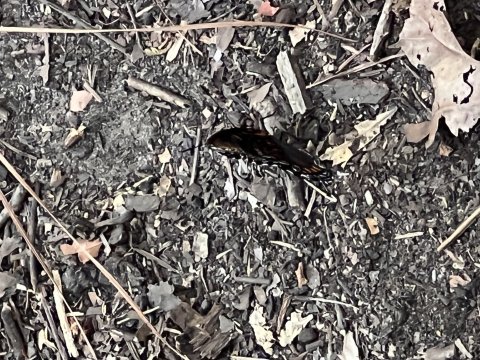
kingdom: Animalia
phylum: Arthropoda
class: Insecta
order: Lepidoptera
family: Nymphalidae
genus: Limenitis
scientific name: Limenitis arthemis
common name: Red-spotted Admiral
